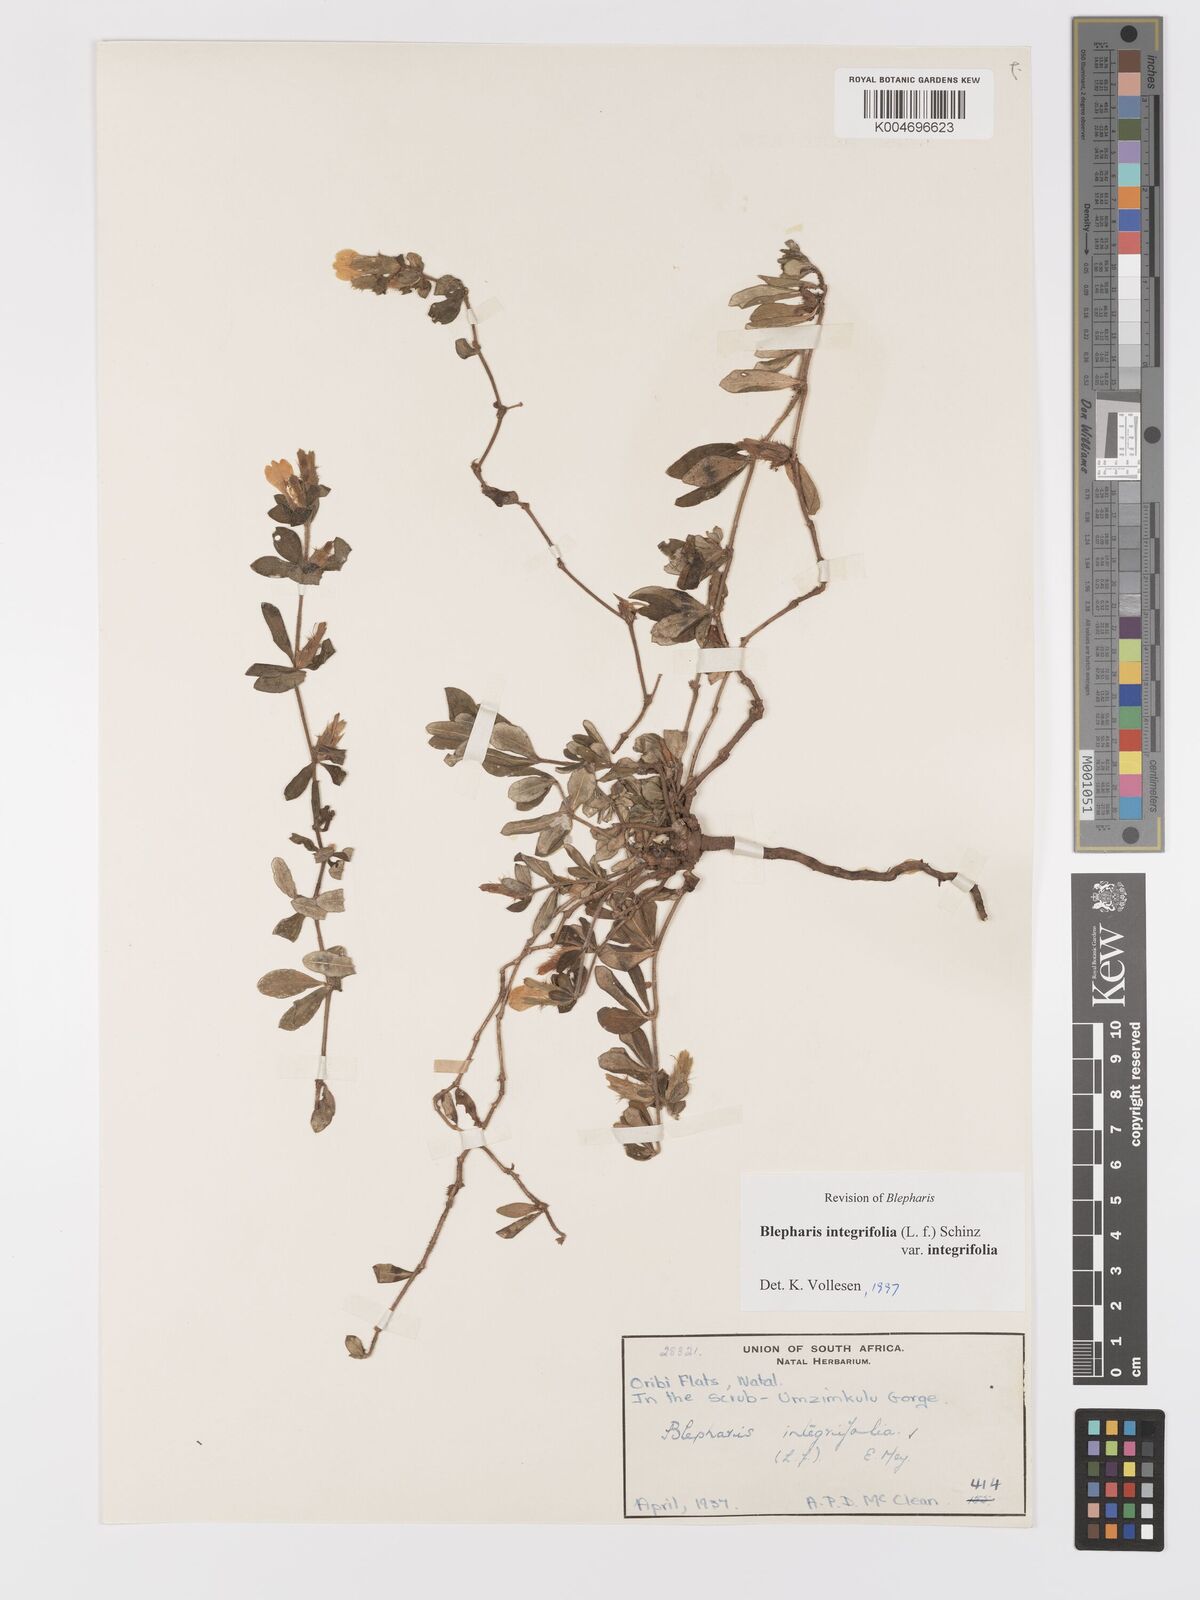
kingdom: Plantae
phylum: Tracheophyta
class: Magnoliopsida
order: Lamiales
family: Acanthaceae
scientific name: Acanthaceae
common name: Acanthaceae
